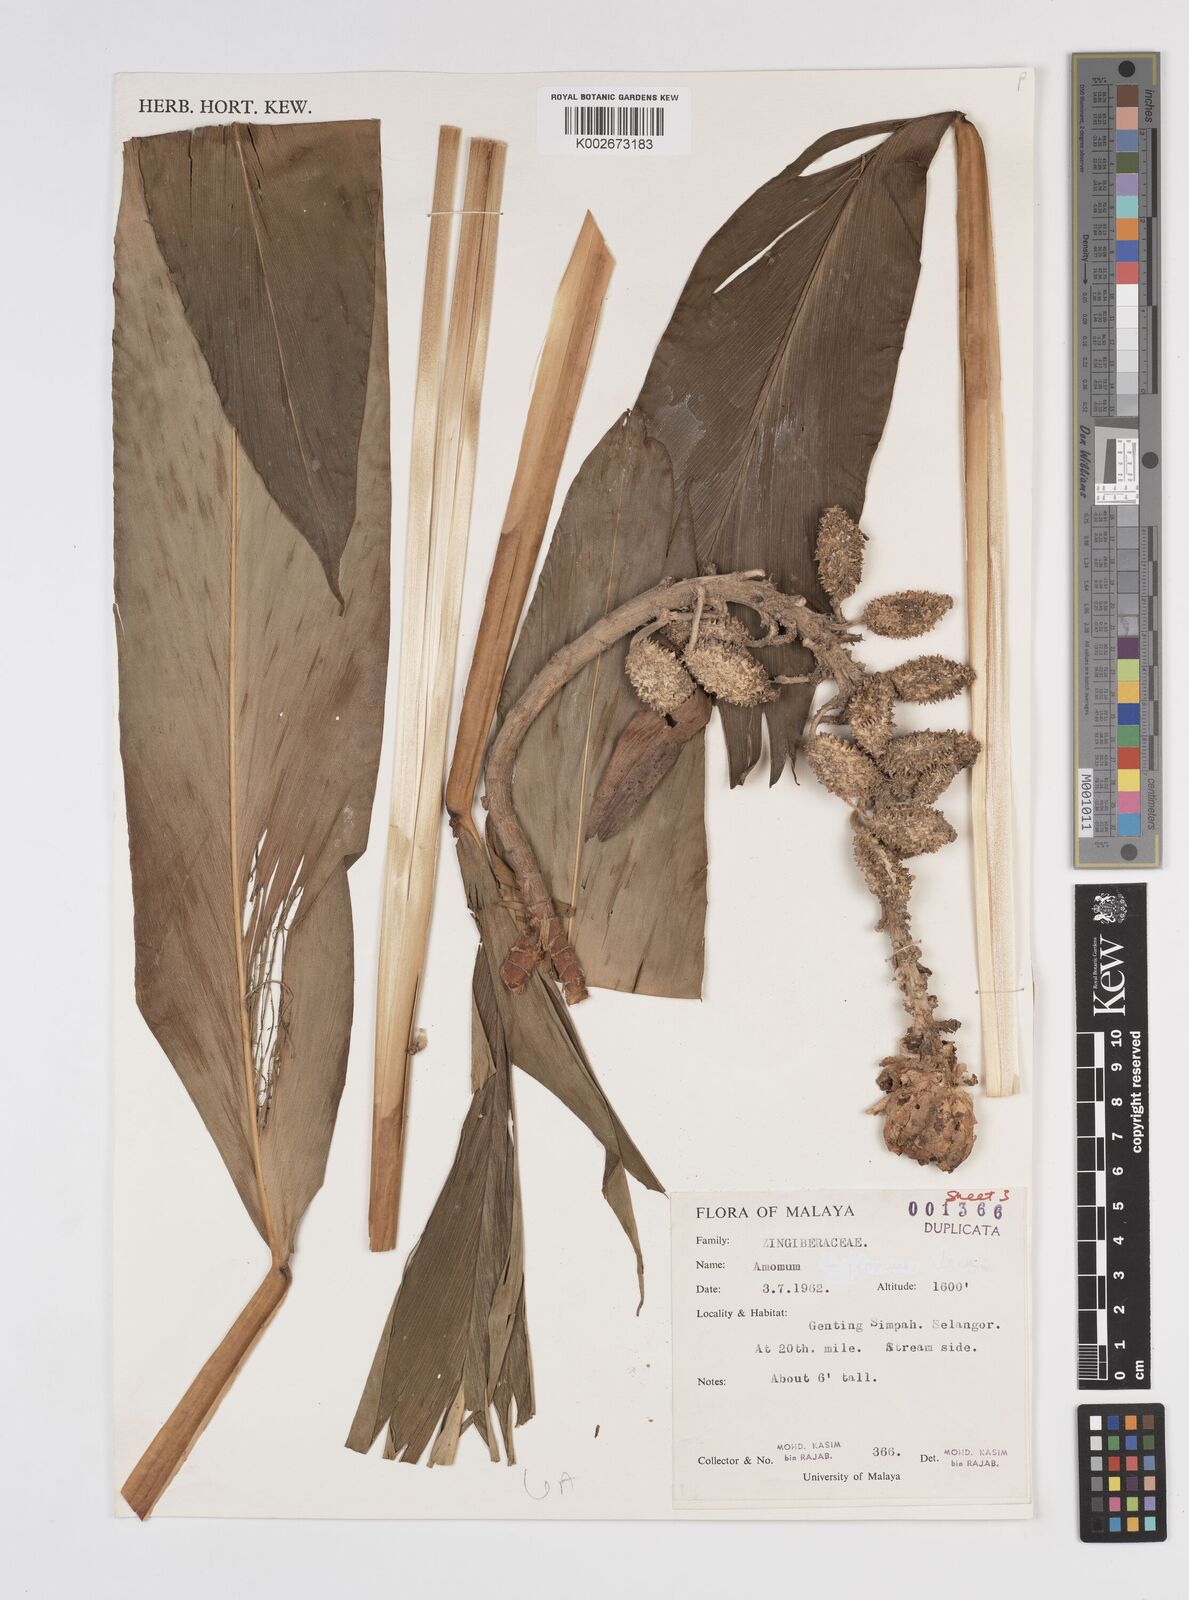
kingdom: Plantae
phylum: Tracheophyta
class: Liliopsida
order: Zingiberales
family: Zingiberaceae
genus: Meistera
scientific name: Meistera lappacea
